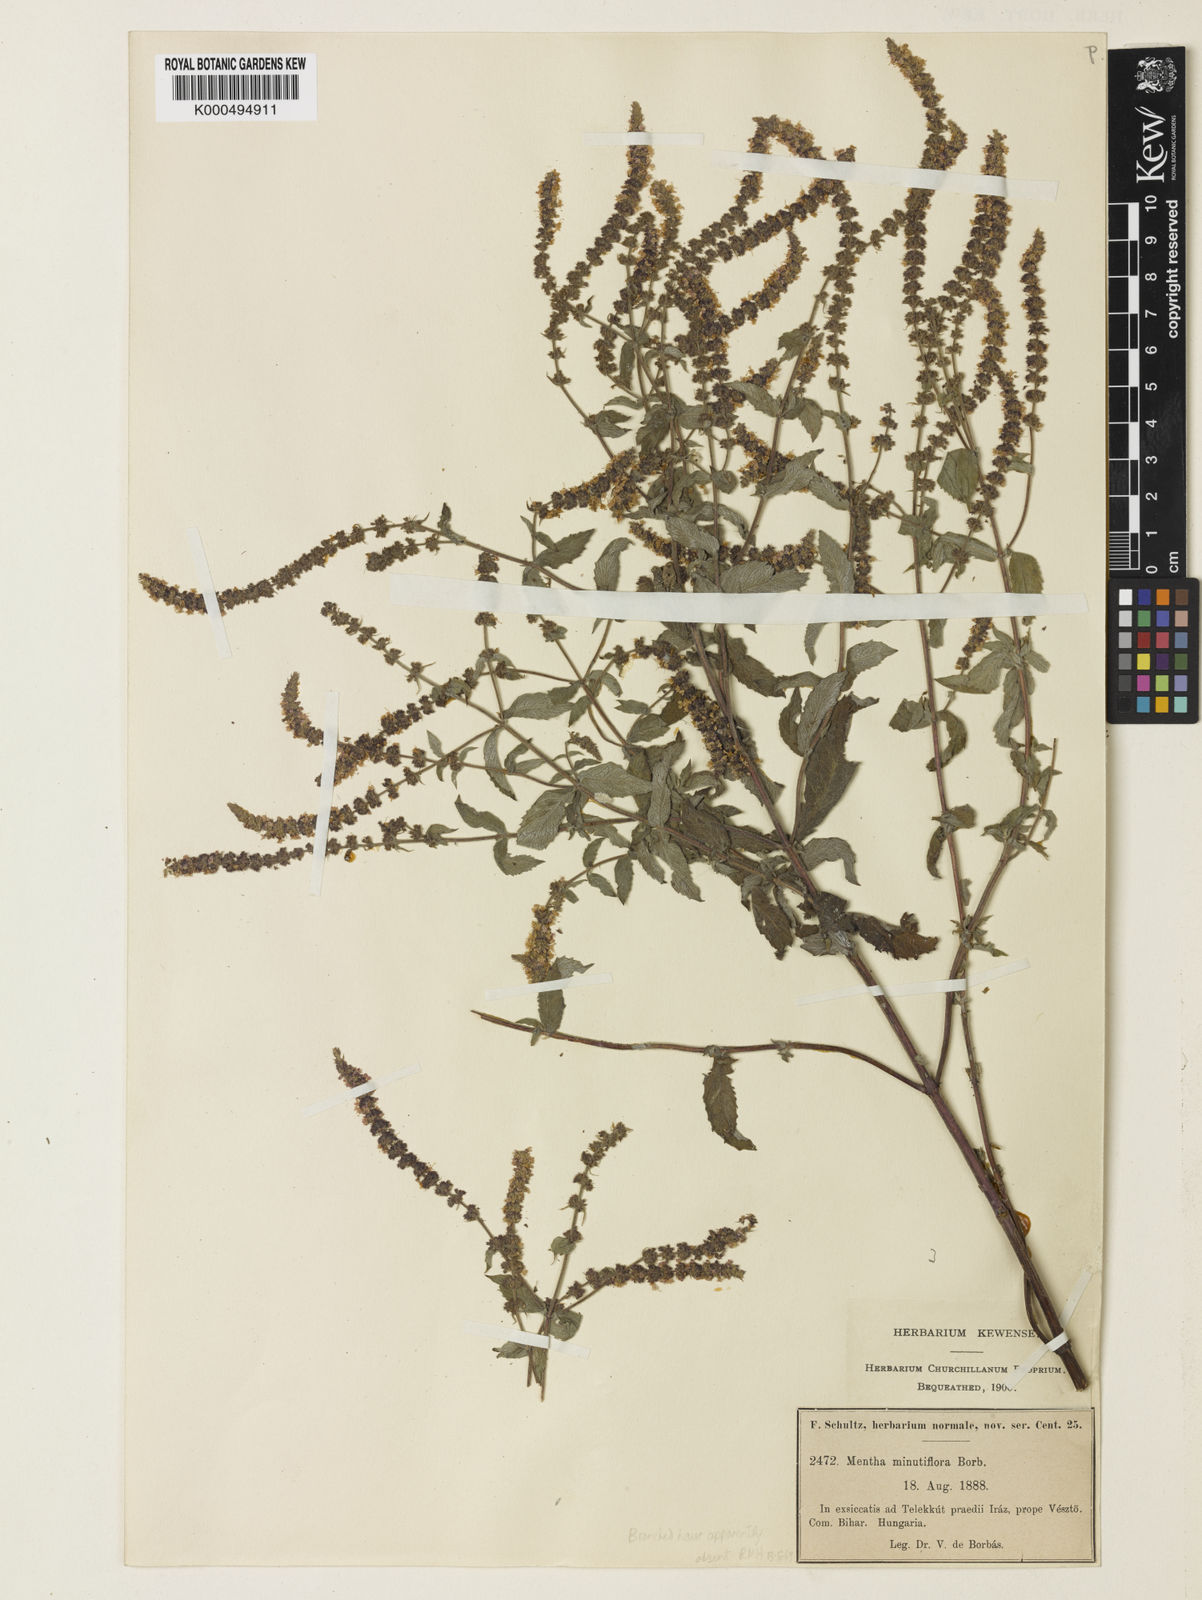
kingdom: Plantae
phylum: Tracheophyta
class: Magnoliopsida
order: Lamiales
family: Lamiaceae
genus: Mentha
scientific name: Mentha spicata
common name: Spearmint
